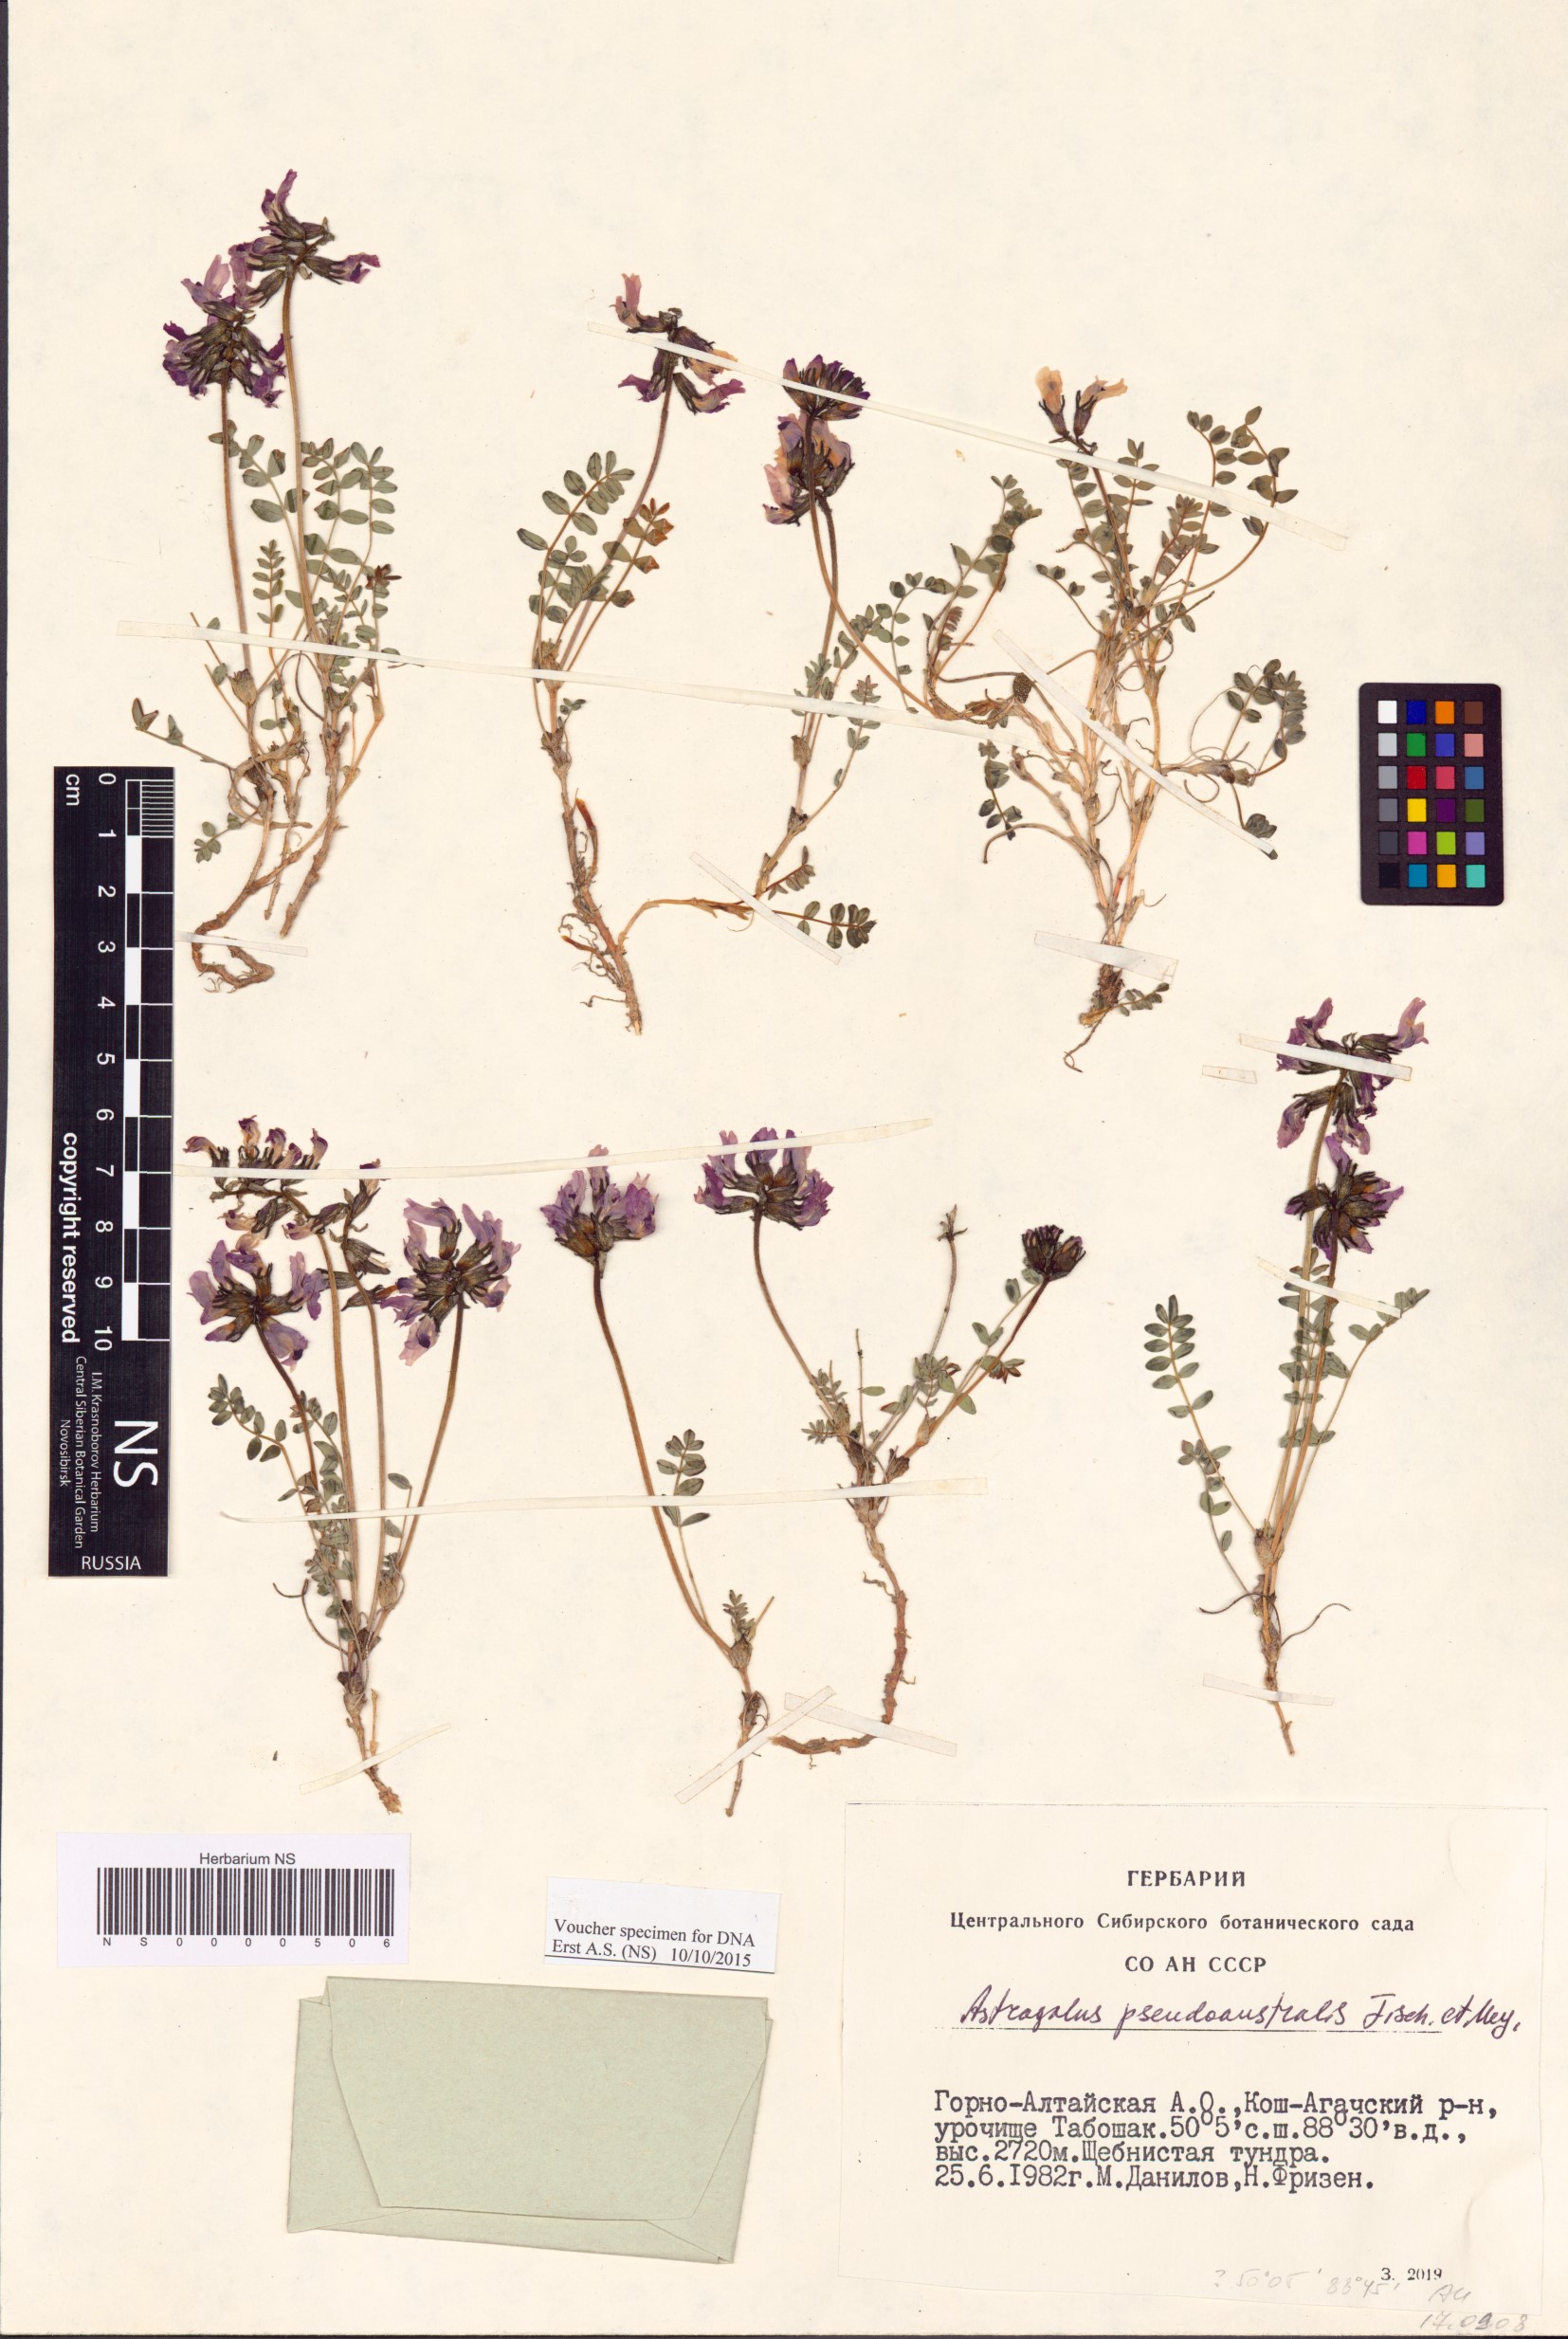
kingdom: Plantae
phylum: Tracheophyta
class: Magnoliopsida
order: Fabales
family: Fabaceae
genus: Astragalus
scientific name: Astragalus pseudoaustralis
